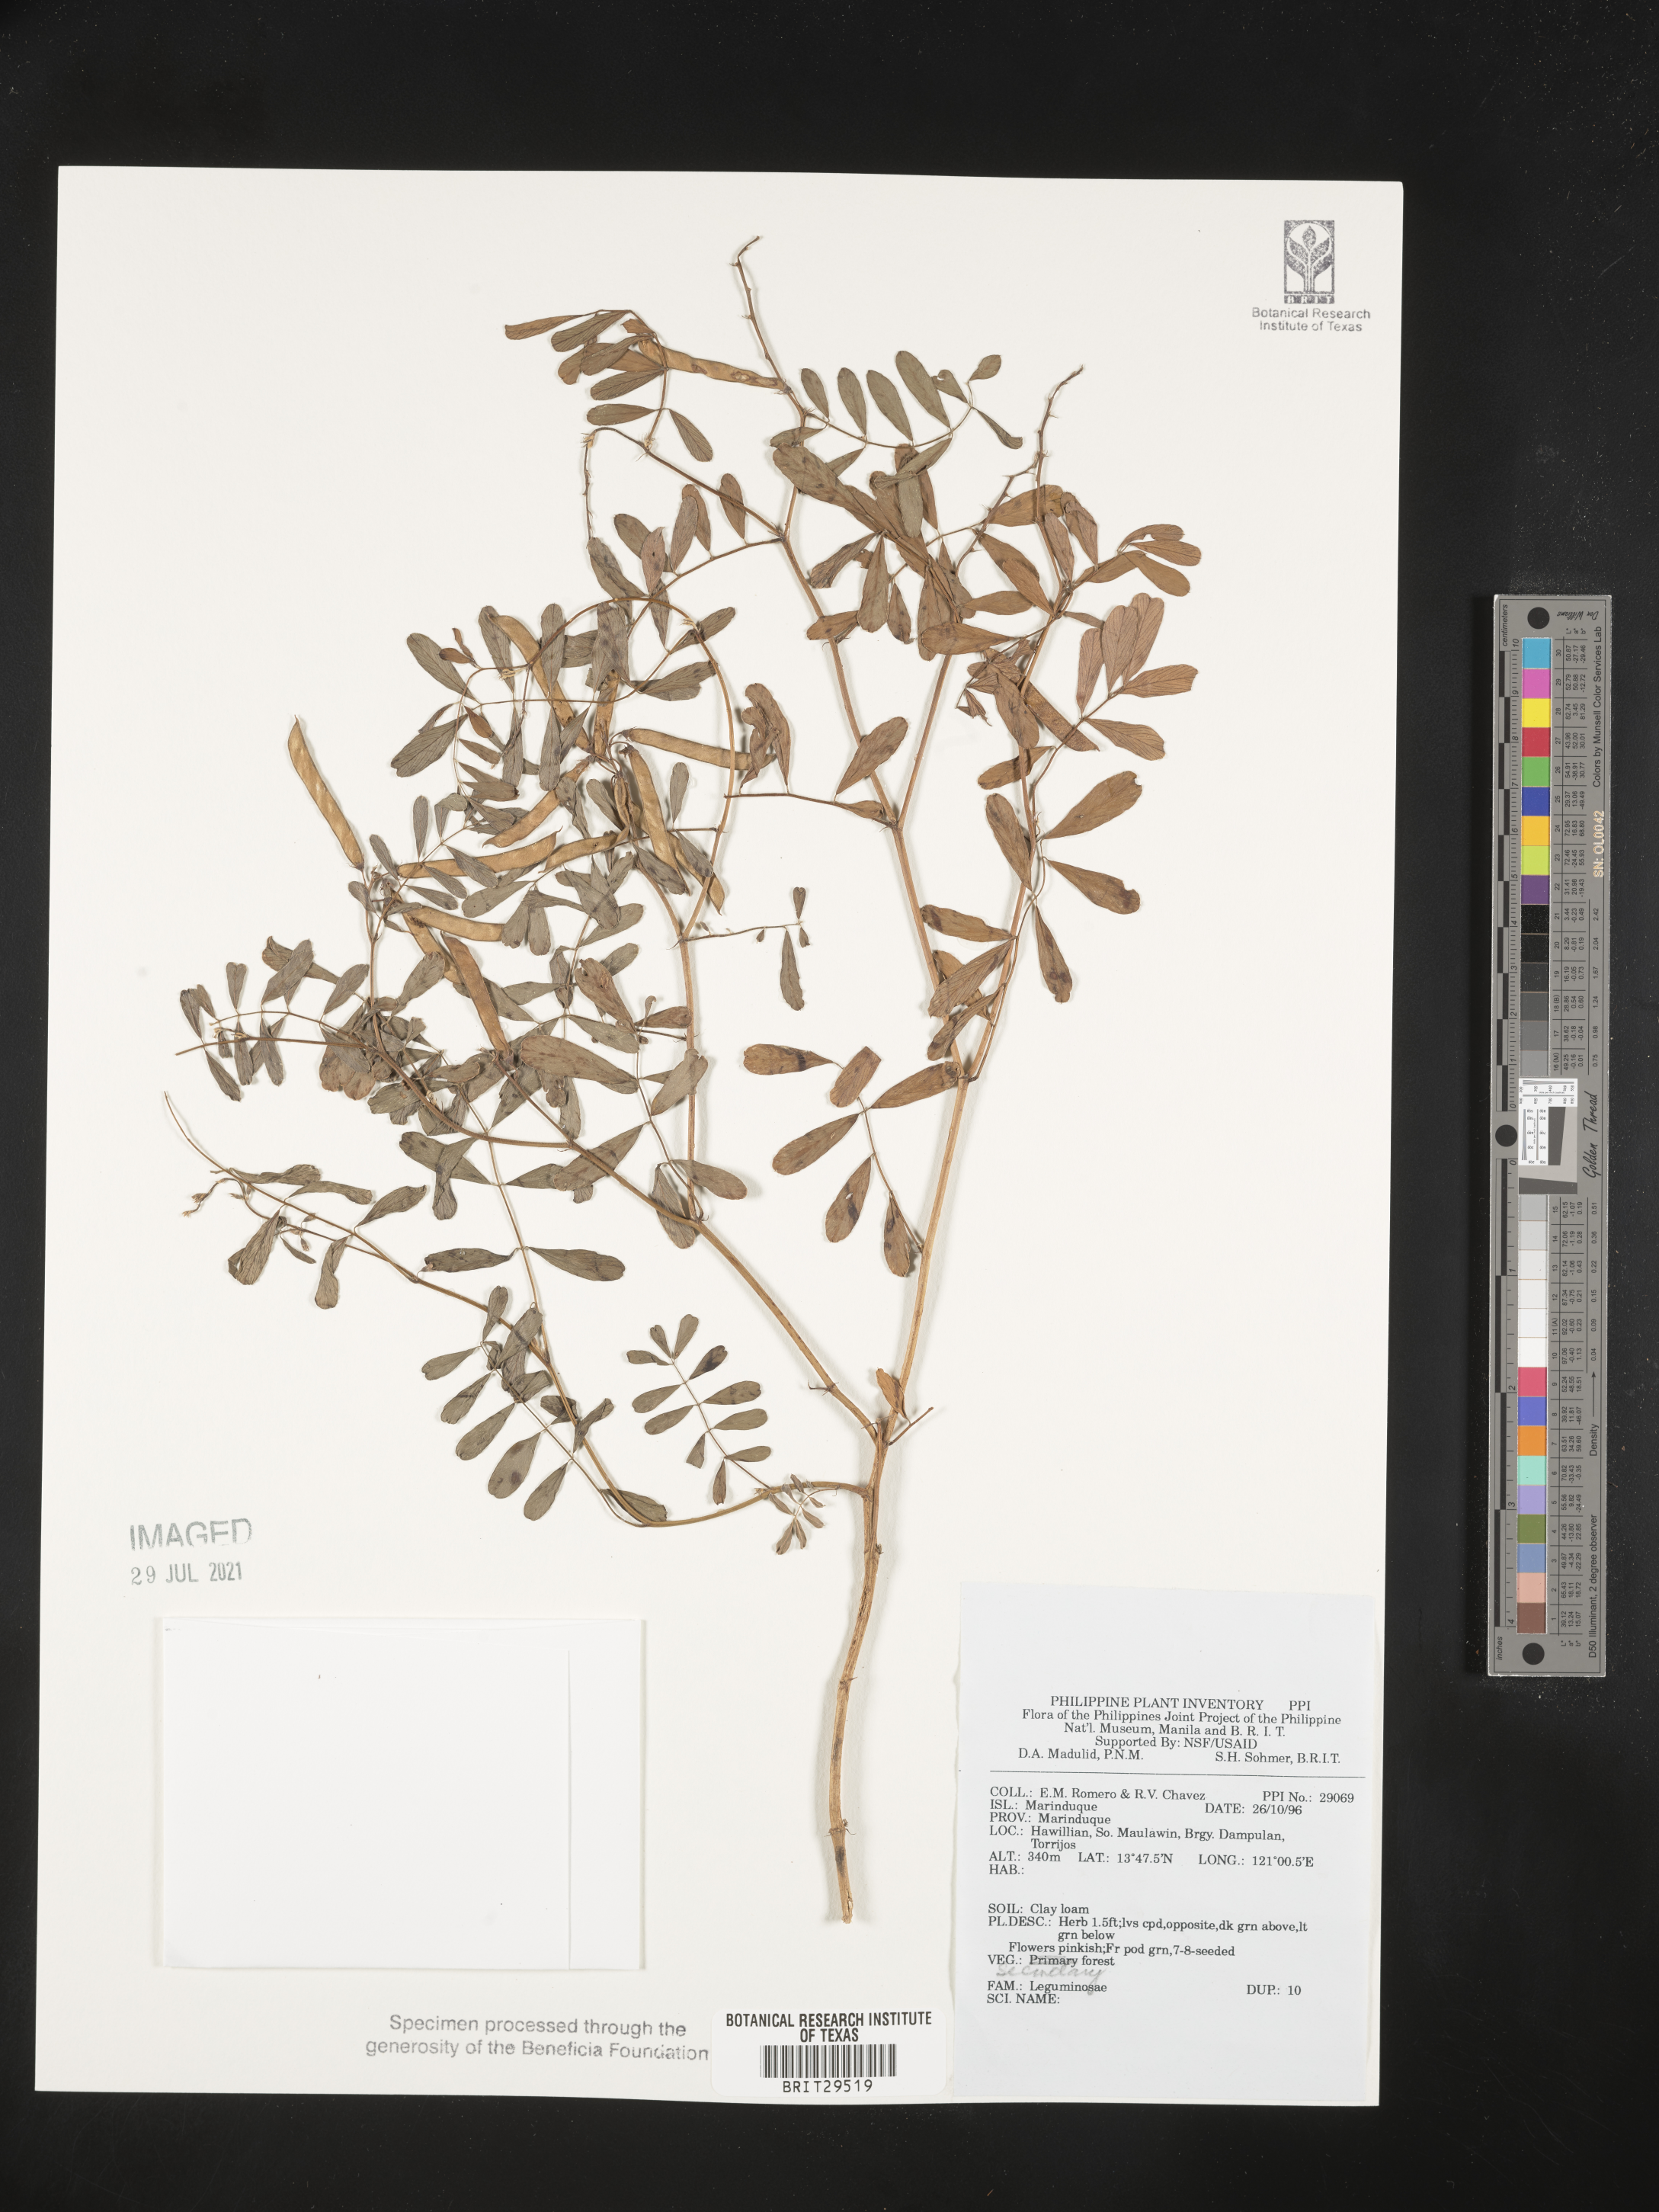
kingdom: Plantae
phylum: Tracheophyta
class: Magnoliopsida
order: Fabales
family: Fabaceae
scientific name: Fabaceae
